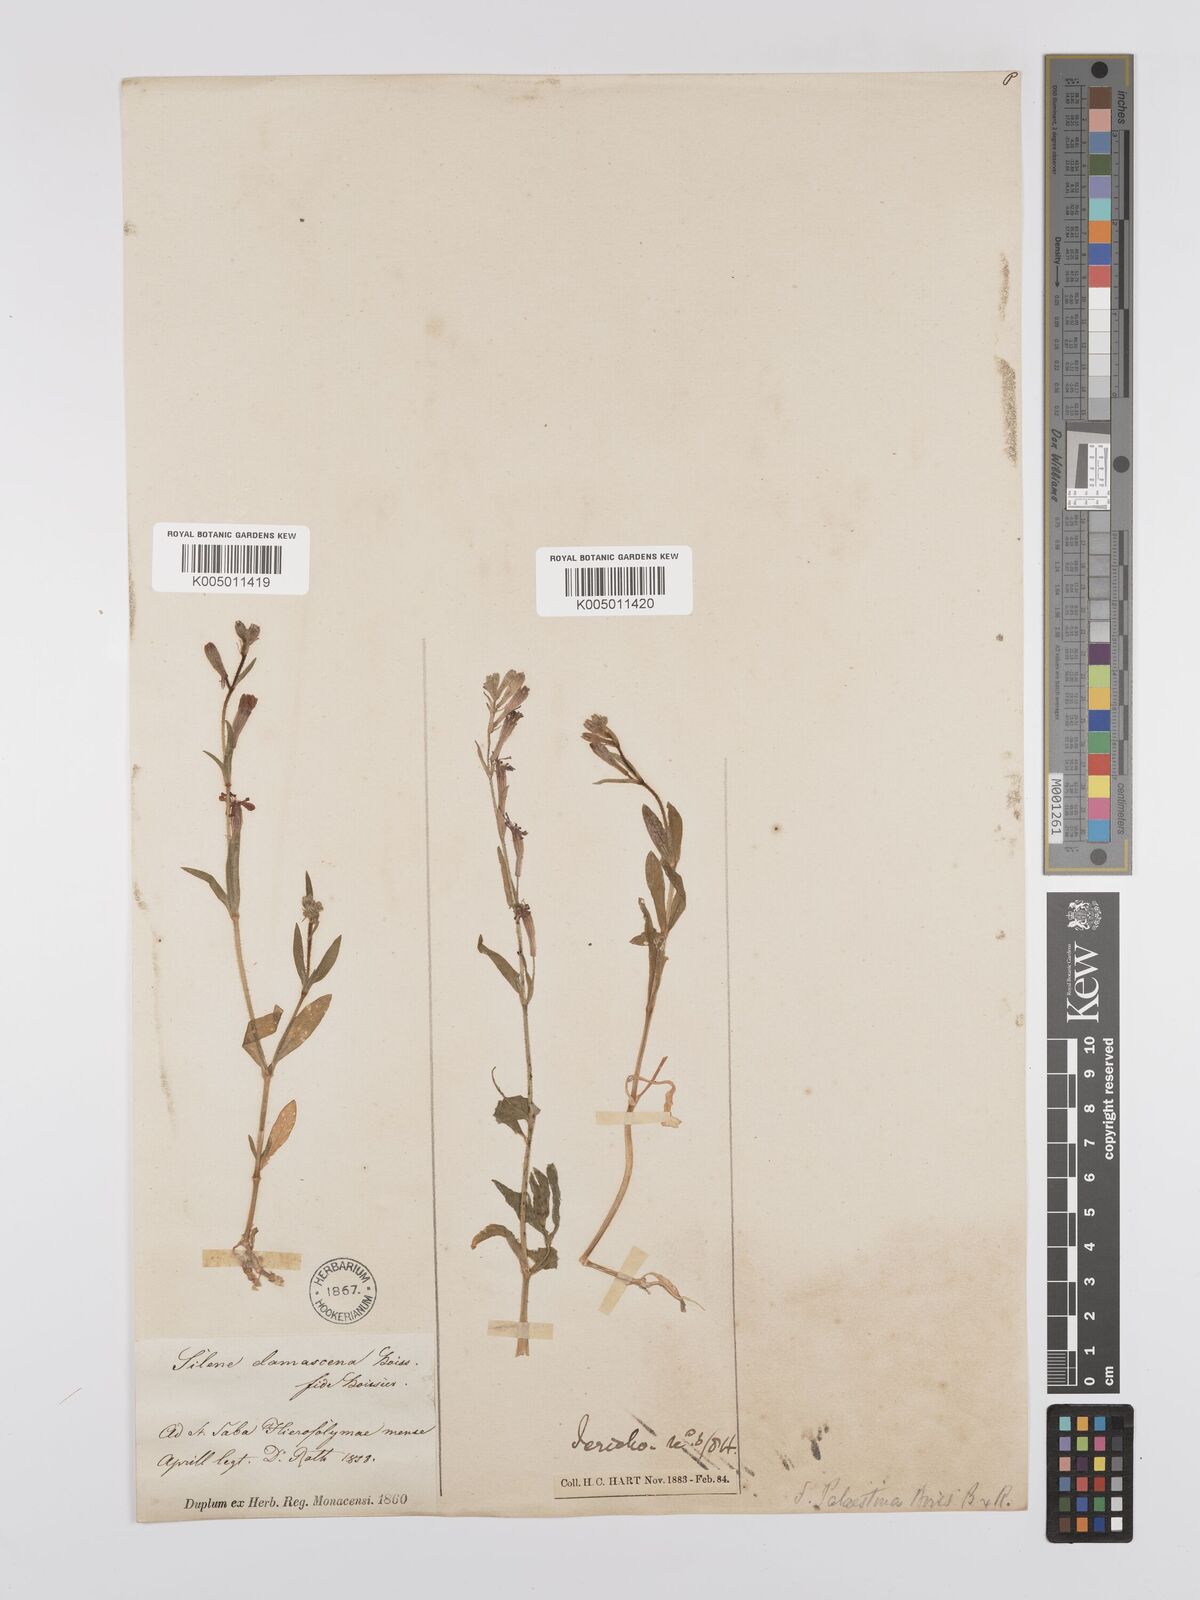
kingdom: Plantae
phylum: Tracheophyta
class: Magnoliopsida
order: Caryophyllales
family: Caryophyllaceae
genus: Silene
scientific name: Silene damascena
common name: Damascus catchfly
